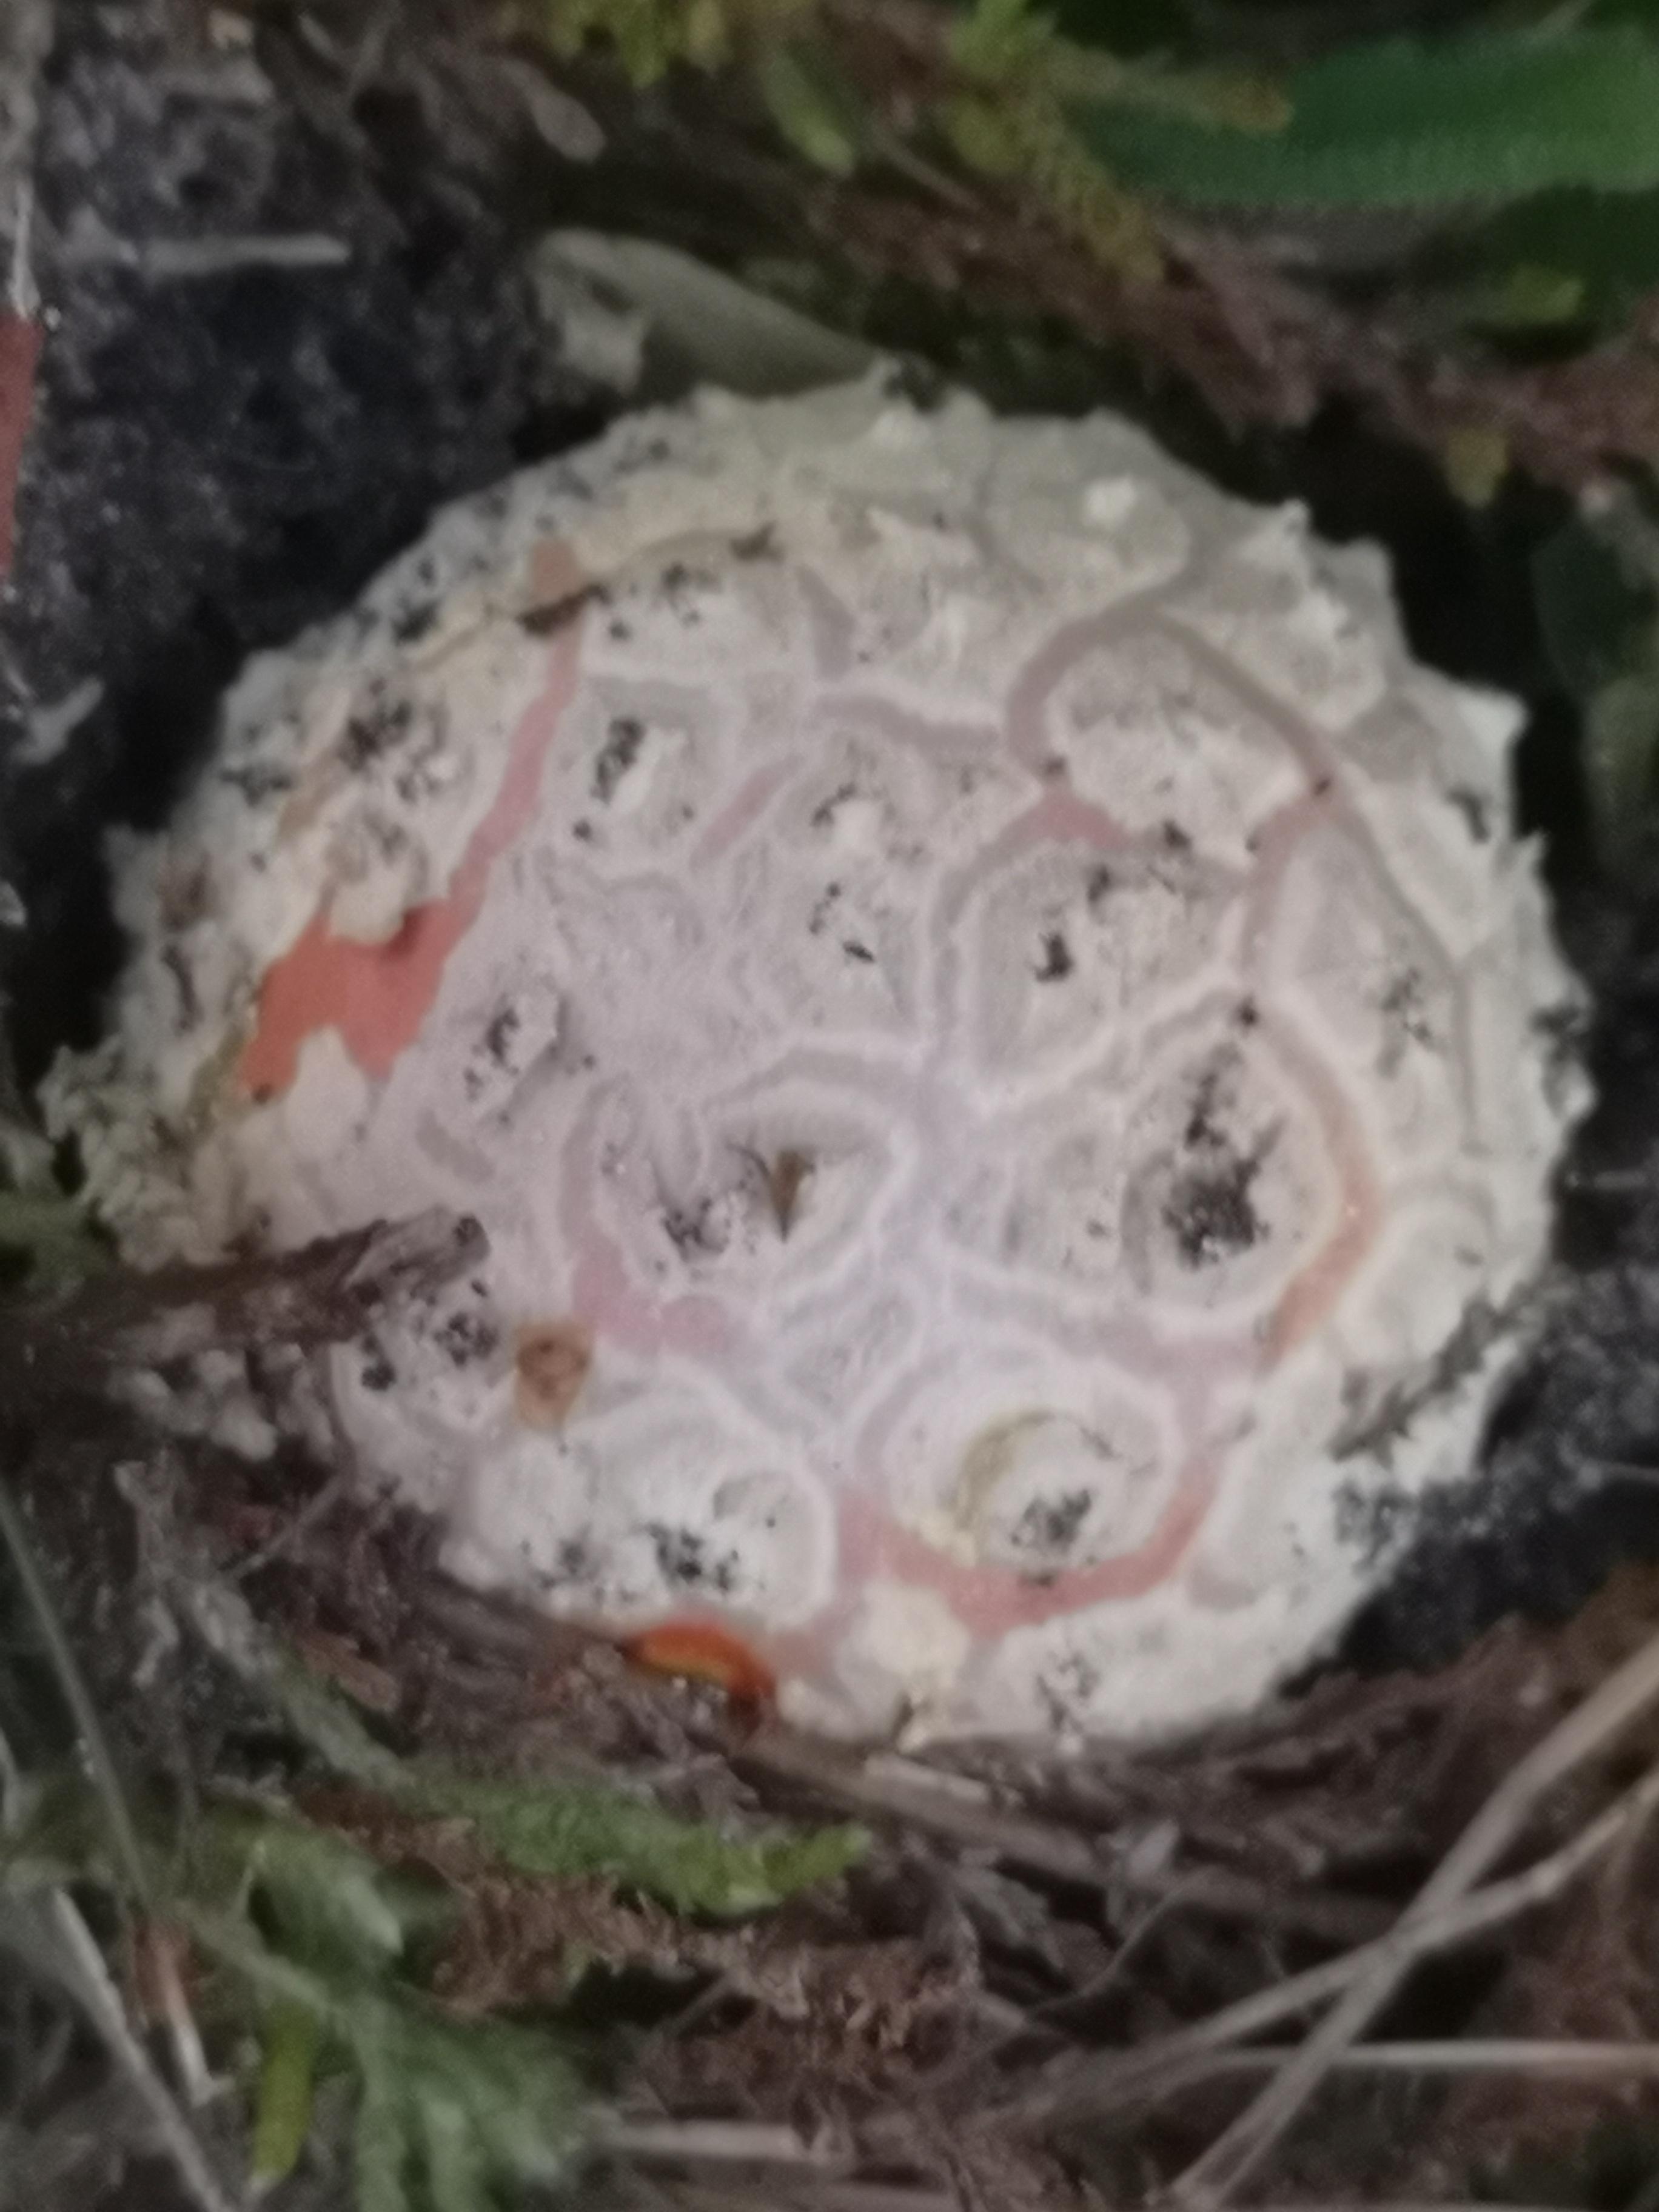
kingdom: Fungi
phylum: Basidiomycota
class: Agaricomycetes
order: Agaricales
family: Amanitaceae
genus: Amanita
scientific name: Amanita muscaria
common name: rød fluesvamp
